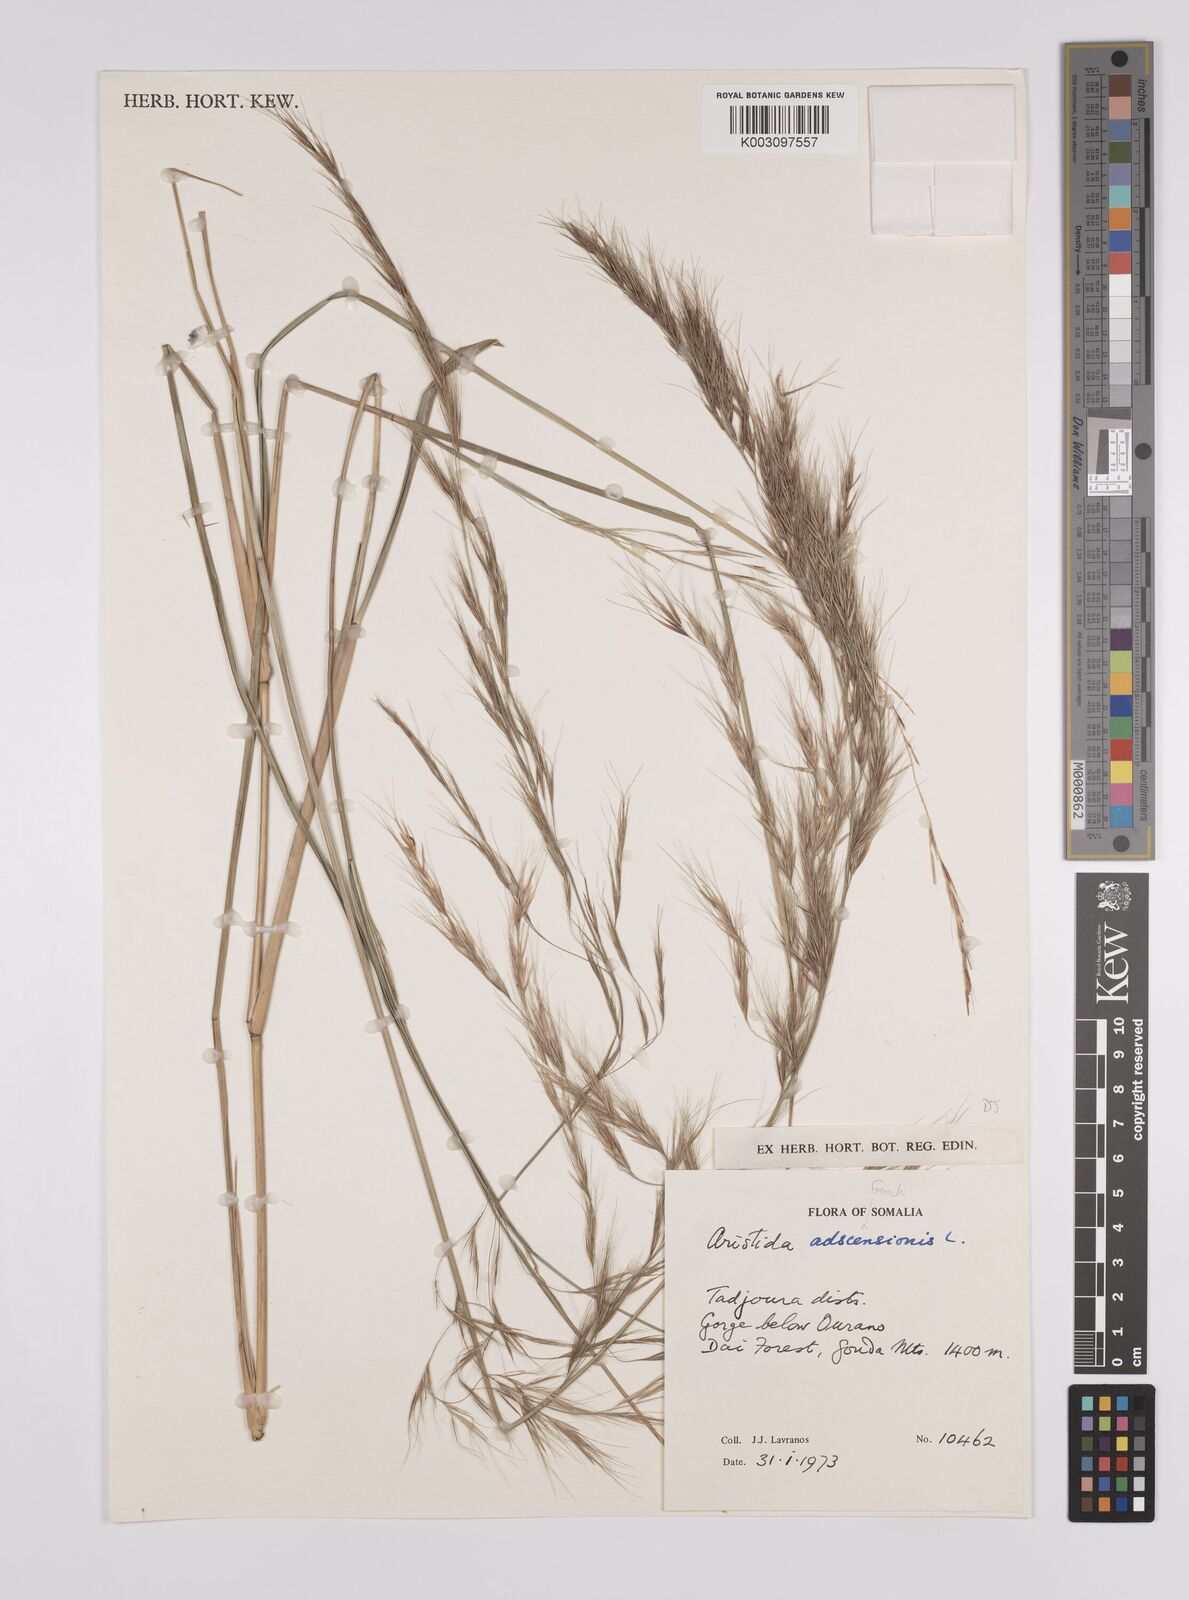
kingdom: Plantae
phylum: Tracheophyta
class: Liliopsida
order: Poales
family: Poaceae
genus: Aristida
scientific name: Aristida adscensionis
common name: Sixweeks threeawn
